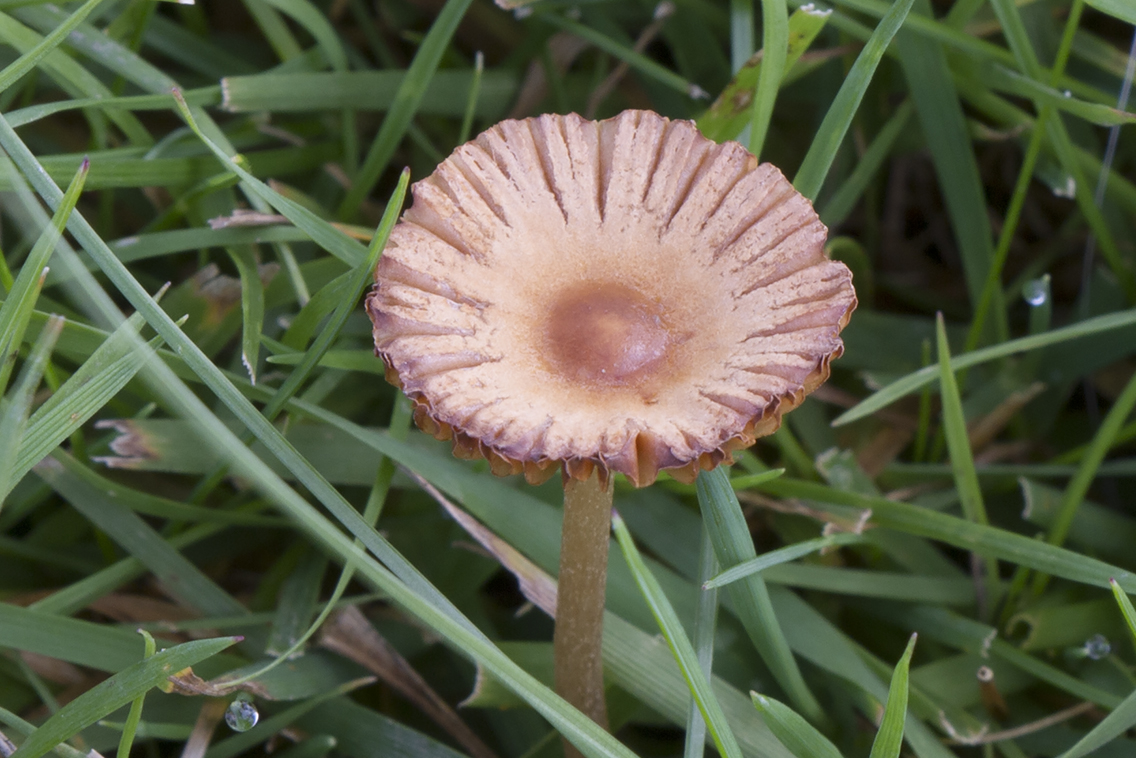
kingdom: Fungi
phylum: Basidiomycota
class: Agaricomycetes
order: Agaricales
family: Bolbitiaceae
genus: Pholiotina
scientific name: Pholiotina sulcata
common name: plisseret dansehat
